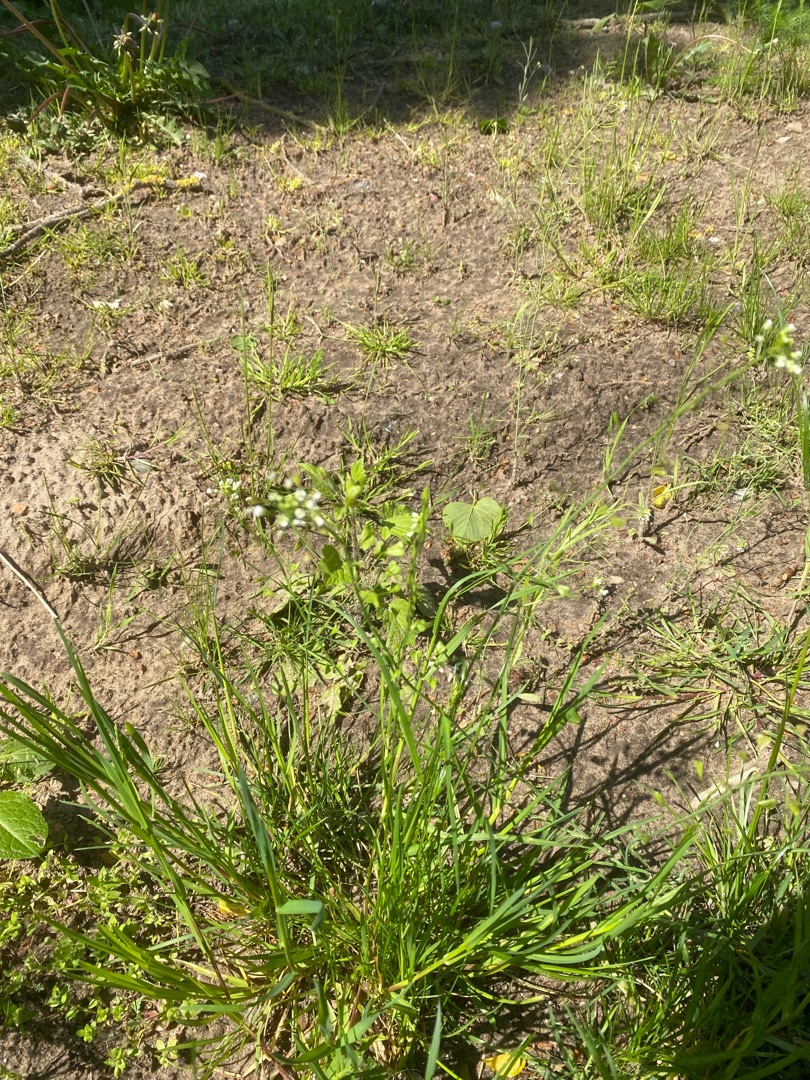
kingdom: Plantae
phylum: Tracheophyta
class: Magnoliopsida
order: Brassicales
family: Brassicaceae
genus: Capsella
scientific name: Capsella bursa-pastoris
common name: Hyrdetaske
